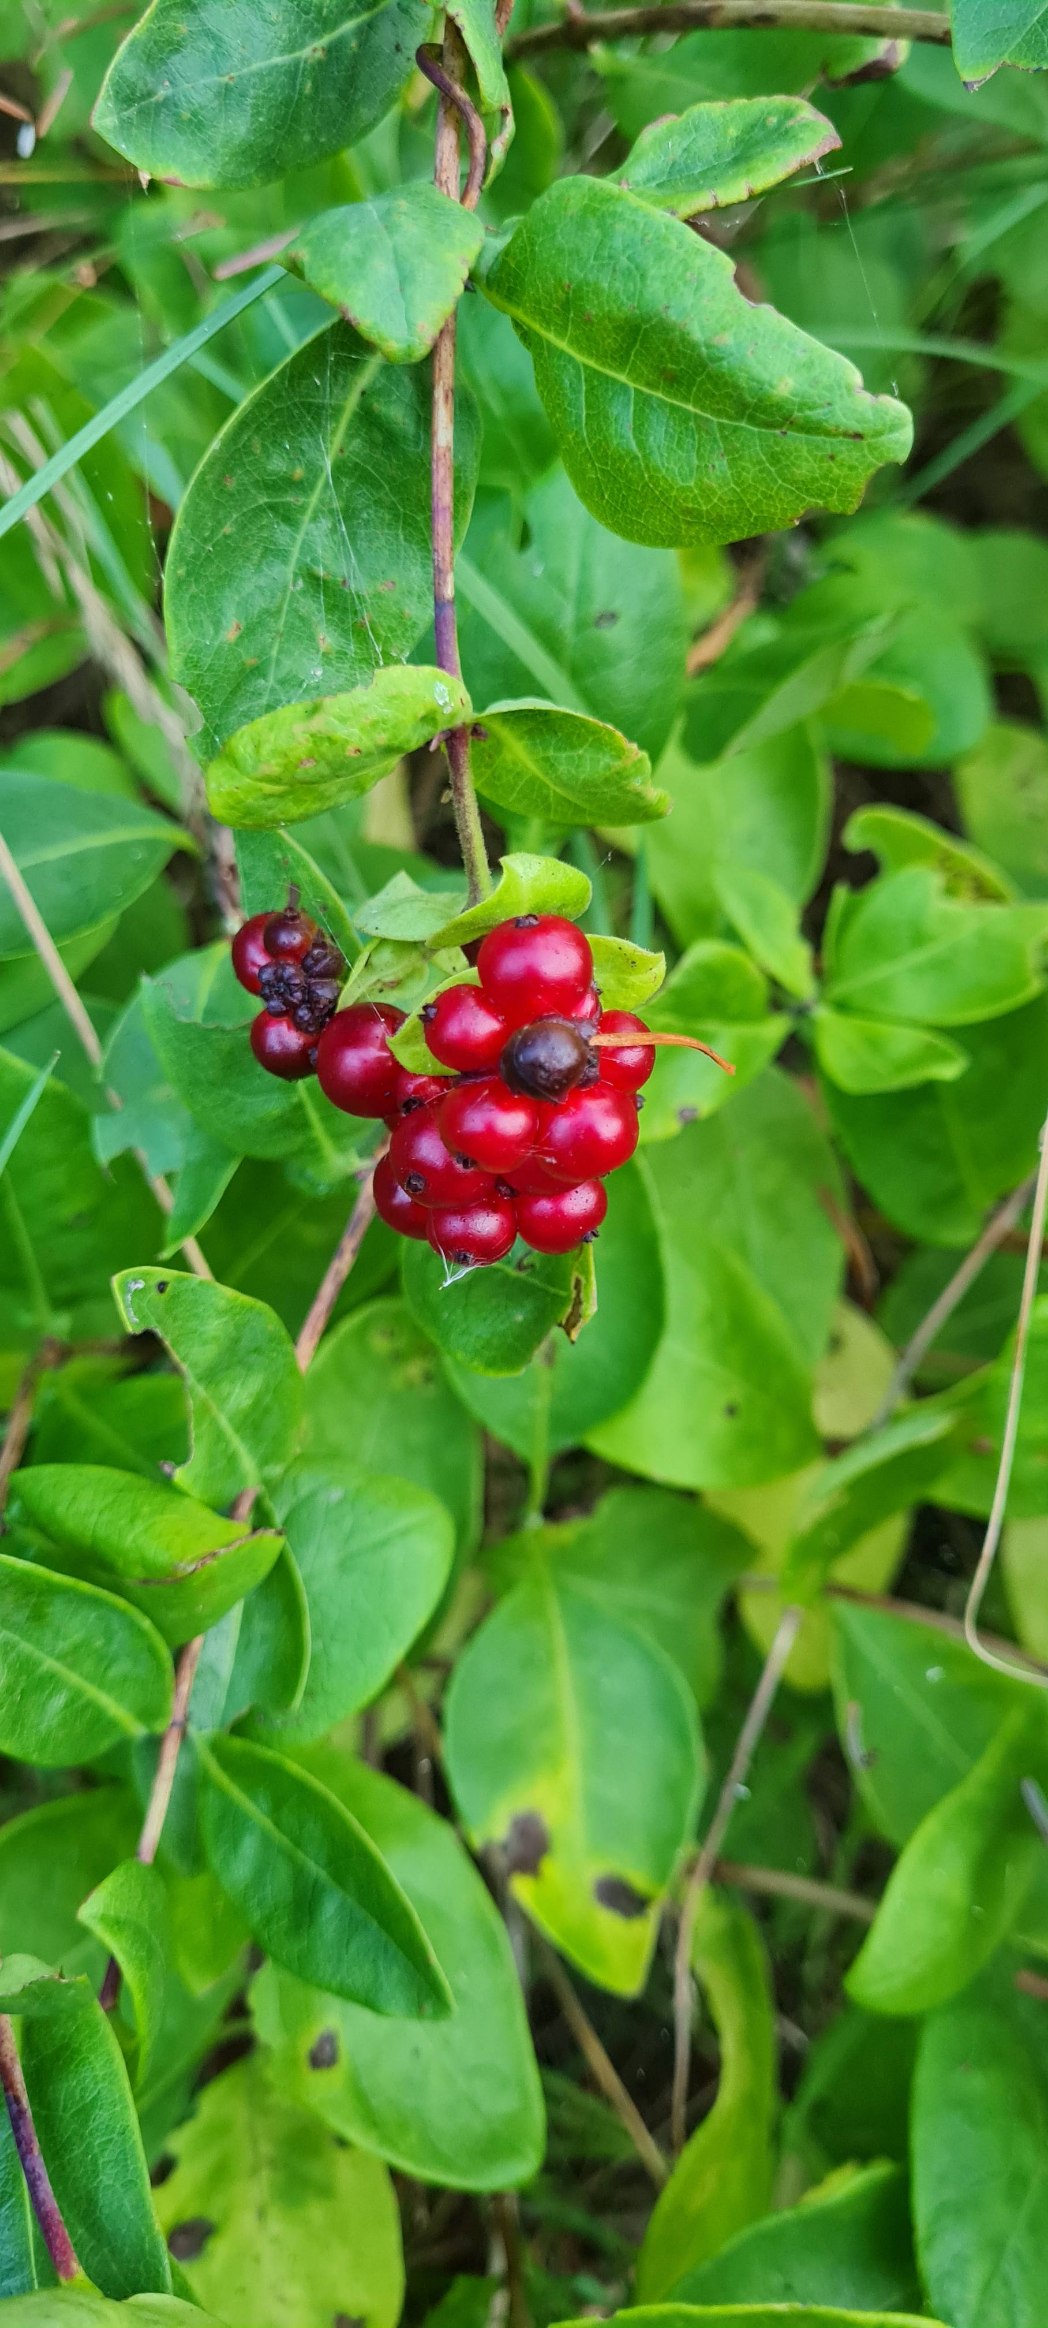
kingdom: Plantae
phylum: Tracheophyta
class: Magnoliopsida
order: Dipsacales
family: Caprifoliaceae
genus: Lonicera
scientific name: Lonicera periclymenum
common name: Almindelig gedeblad
